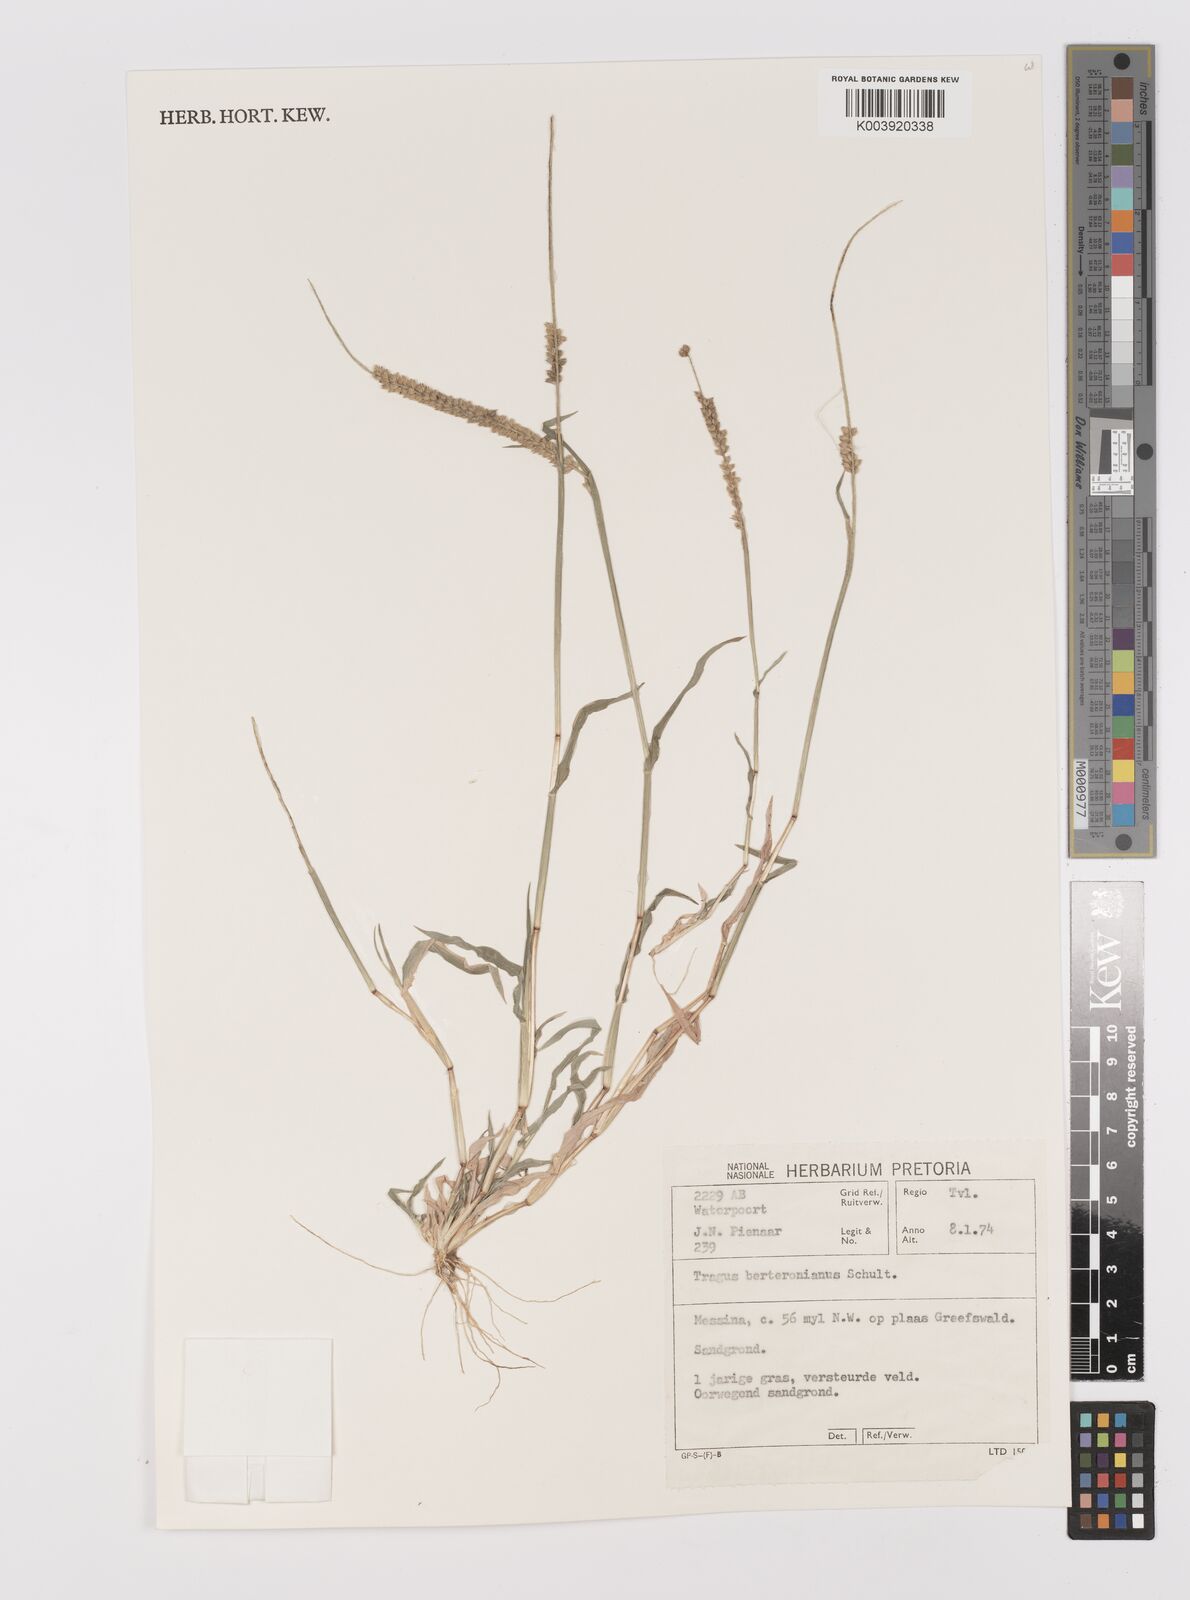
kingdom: Plantae
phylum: Tracheophyta
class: Liliopsida
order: Poales
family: Poaceae
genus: Tragus
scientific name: Tragus berteronianus
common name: African bur-grass
